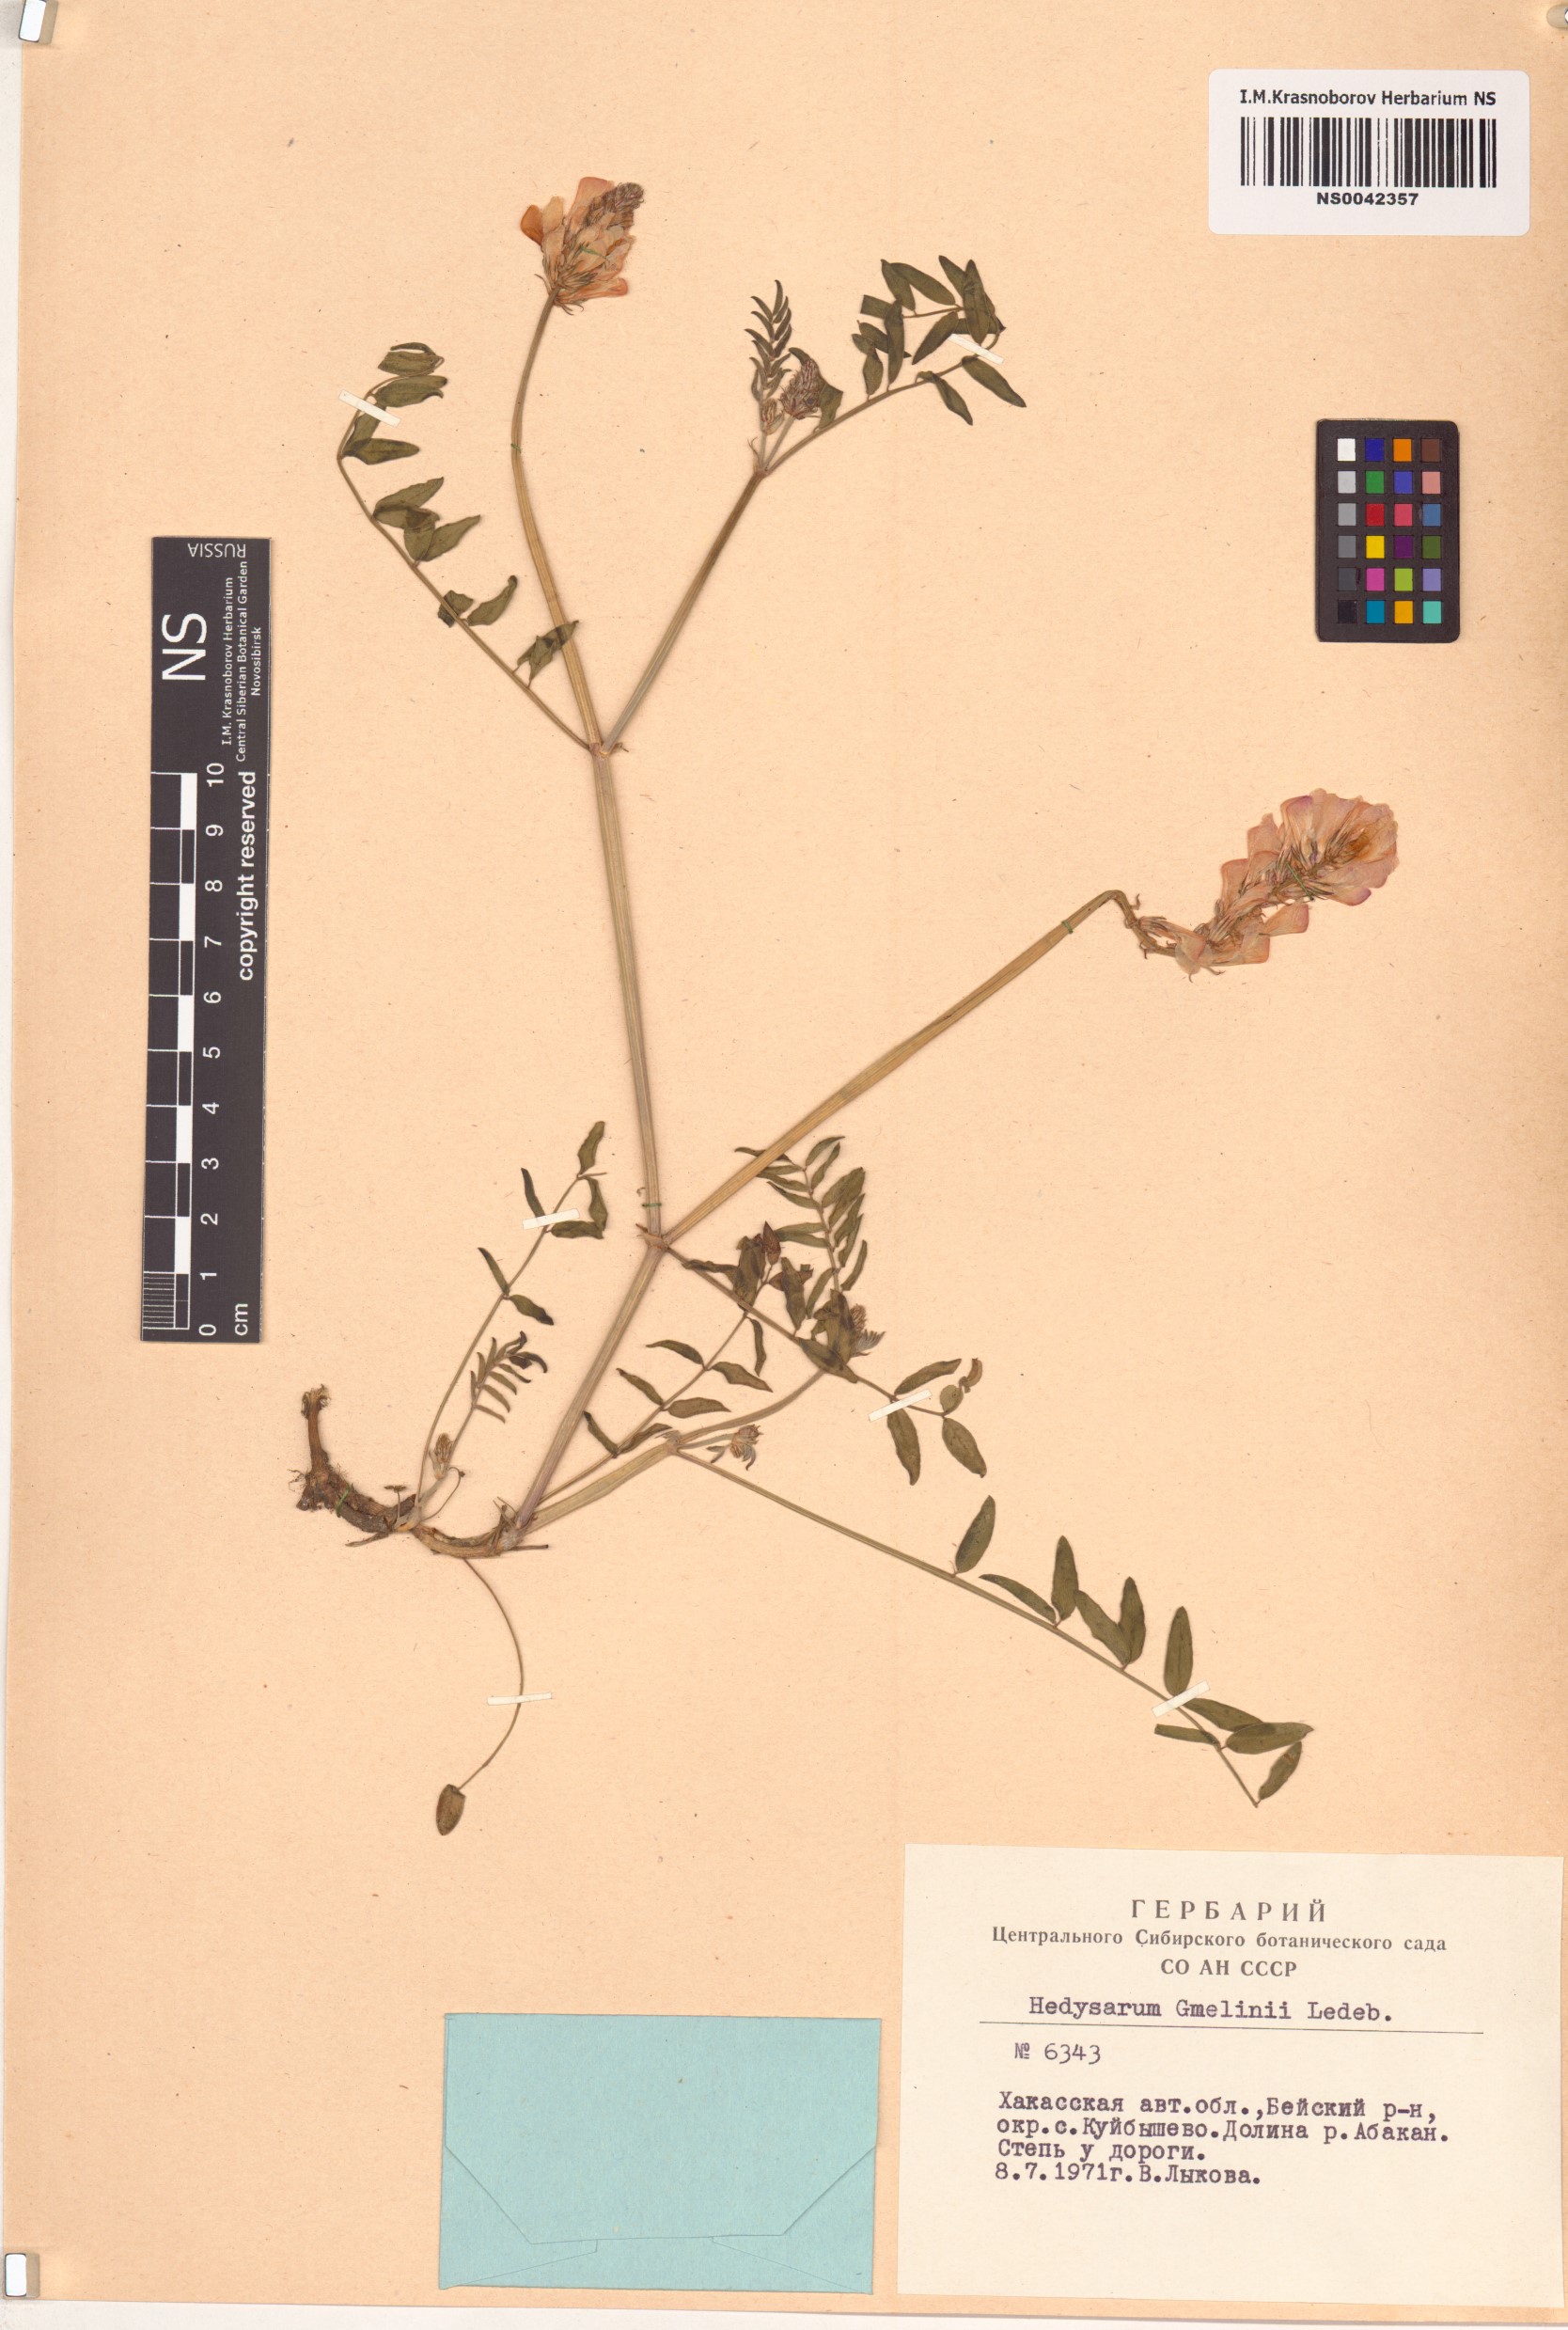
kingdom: Plantae
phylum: Tracheophyta
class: Magnoliopsida
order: Fabales
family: Fabaceae
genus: Hedysarum
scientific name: Hedysarum gmelinii
